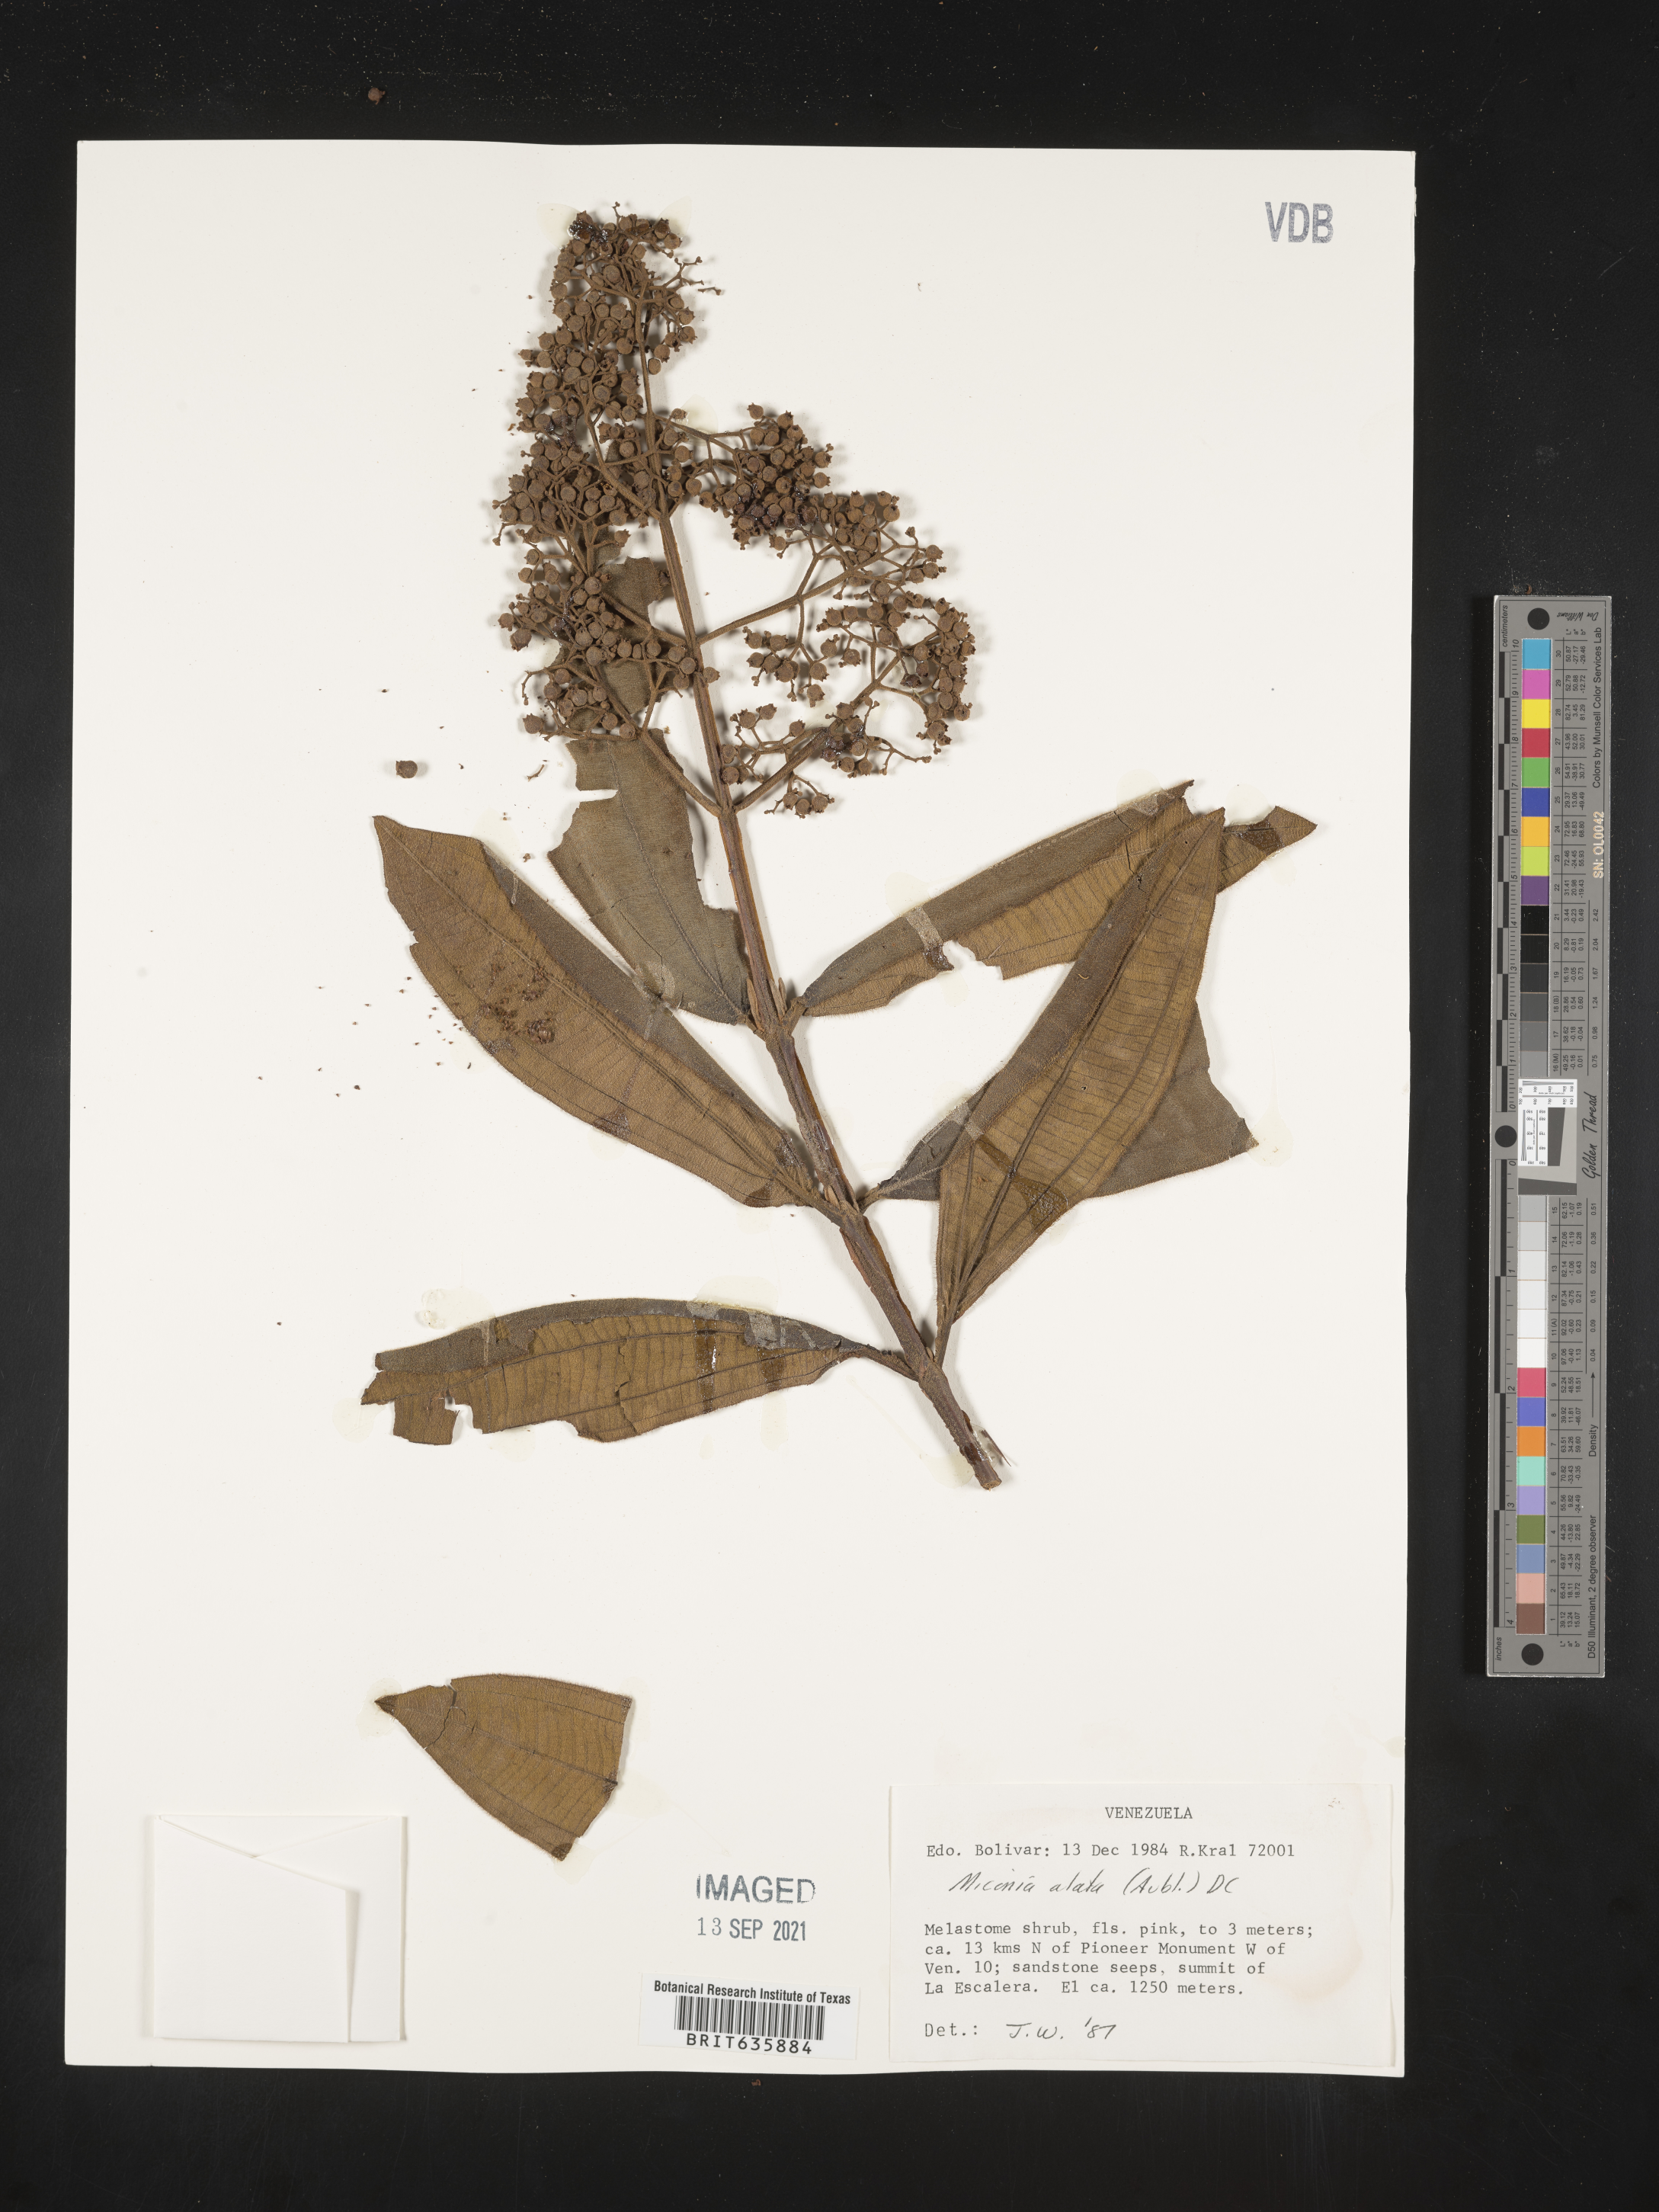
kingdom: Plantae
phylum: Tracheophyta
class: Magnoliopsida
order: Myrtales
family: Melastomataceae
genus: Miconia
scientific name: Miconia
